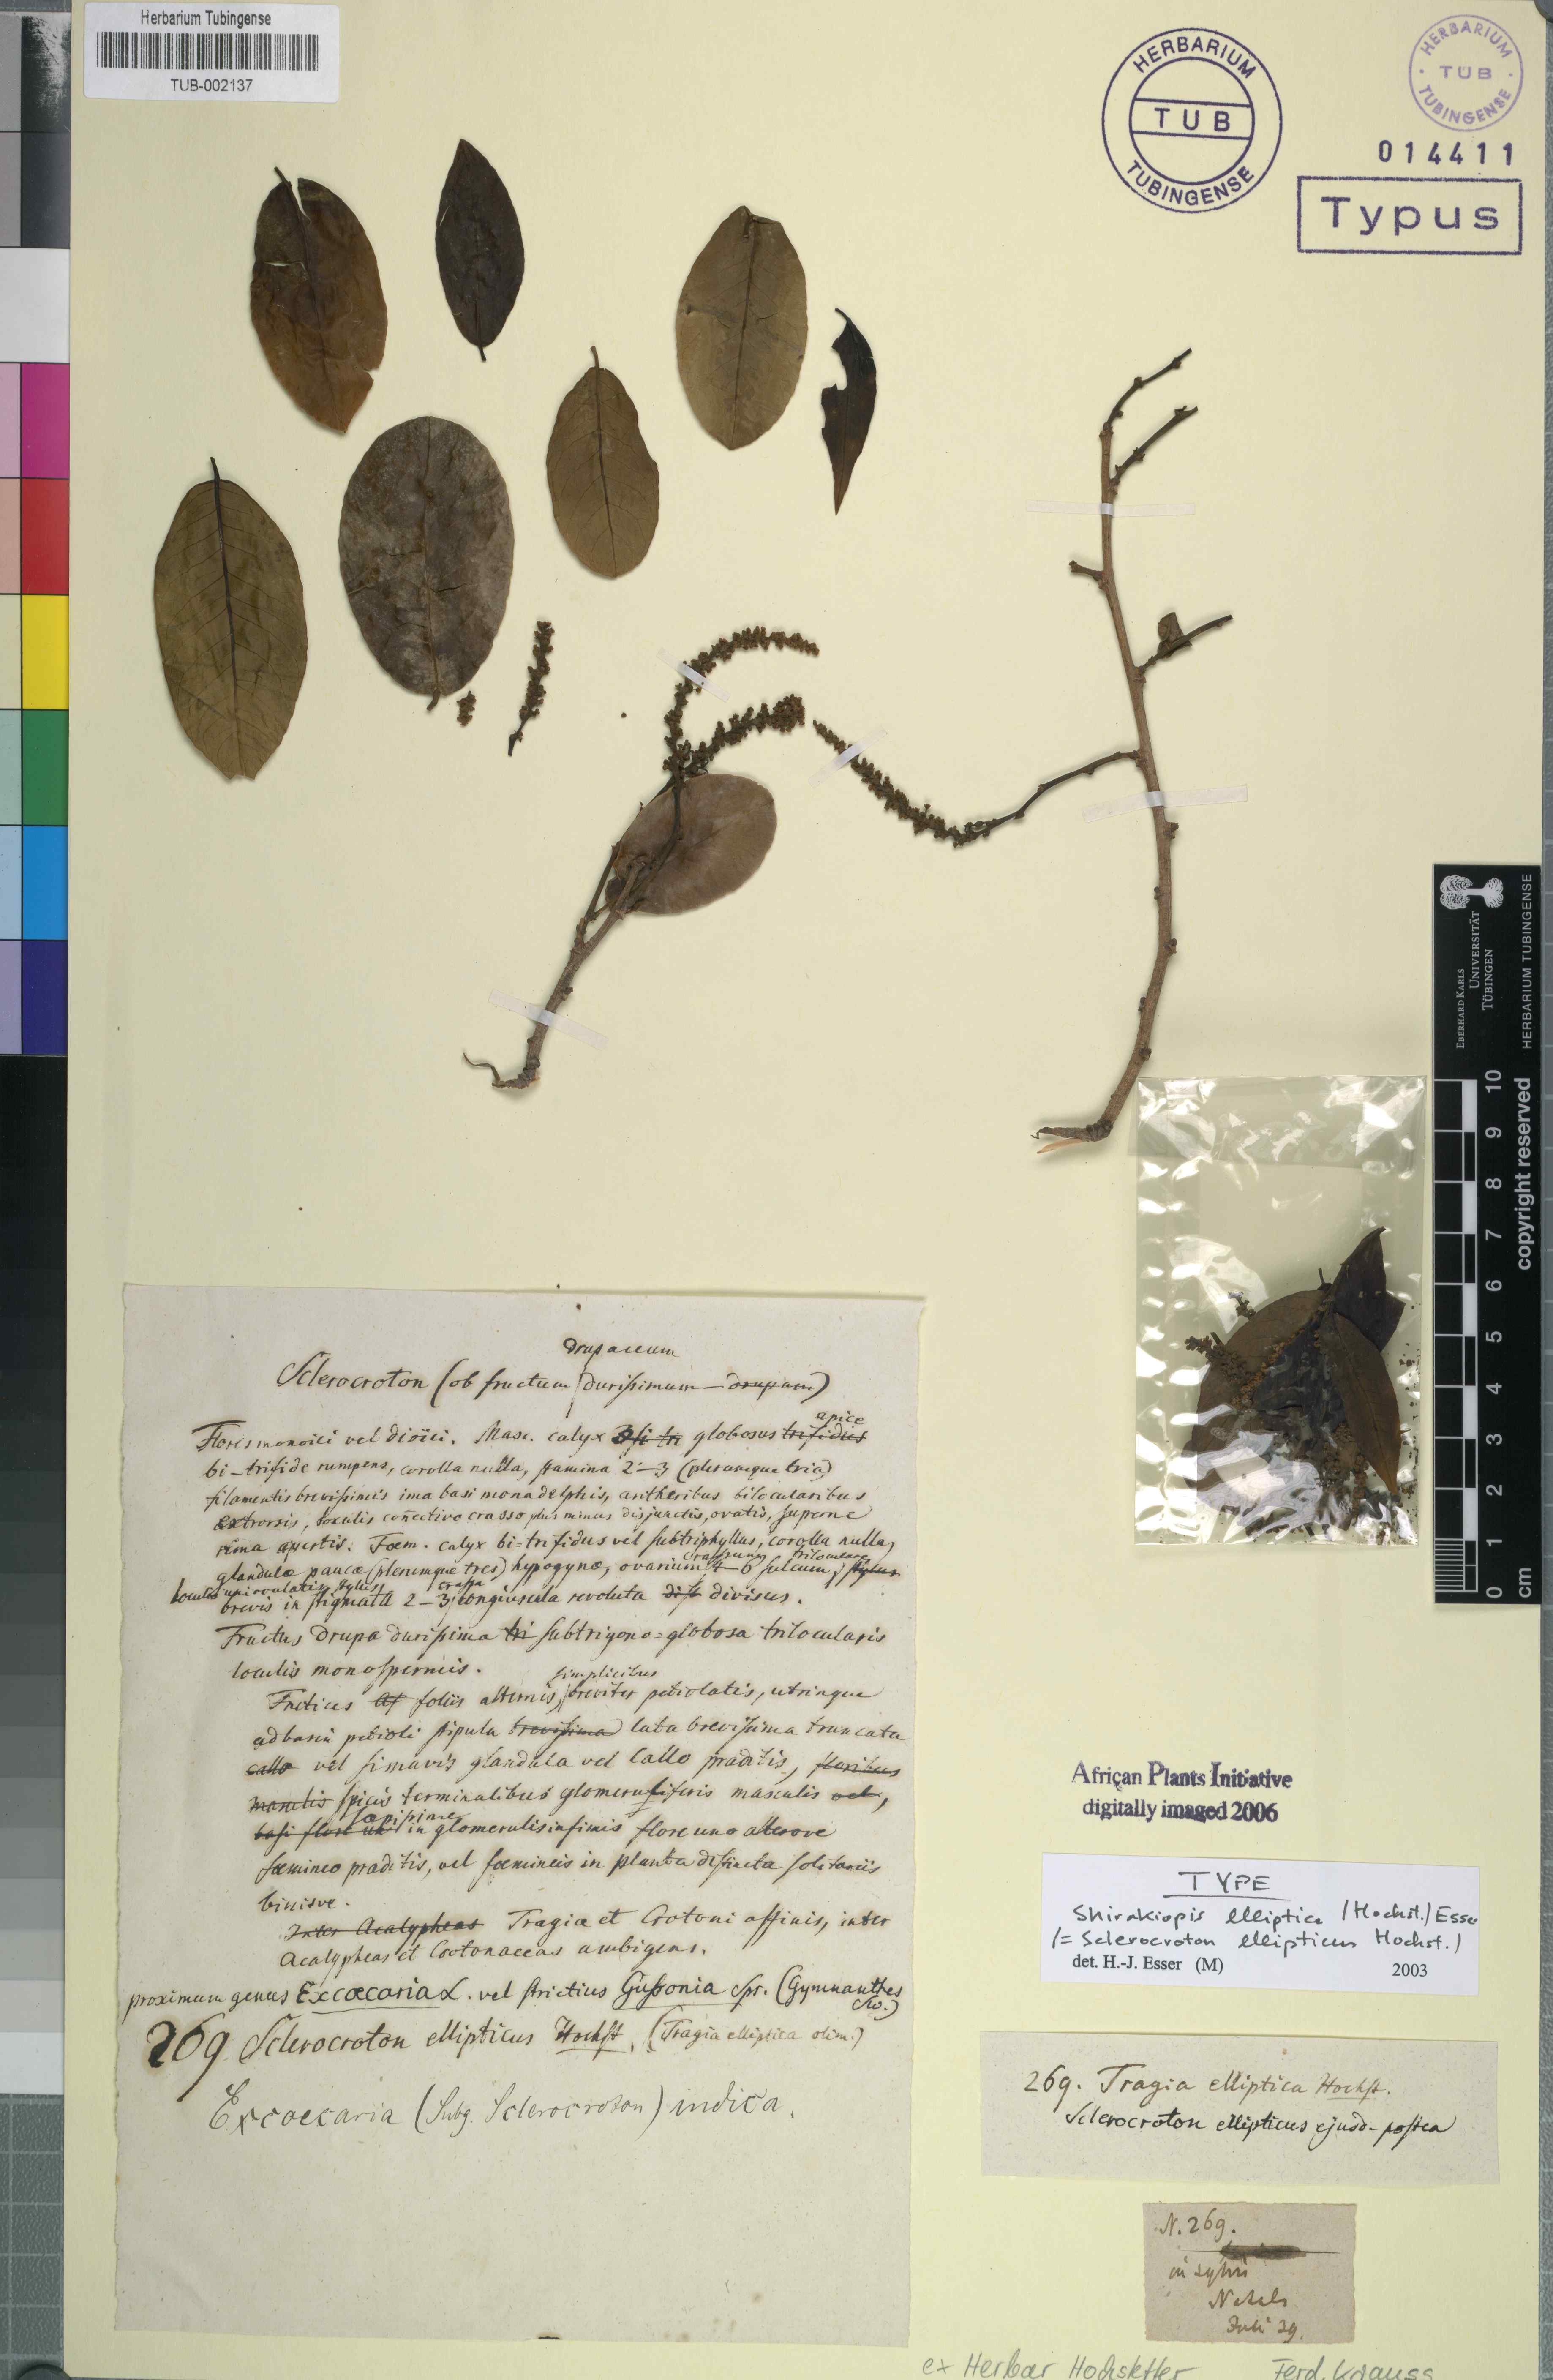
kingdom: Plantae
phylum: Tracheophyta
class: Magnoliopsida
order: Malpighiales
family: Euphorbiaceae
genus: Shirakiopsis
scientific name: Shirakiopsis elliptica
